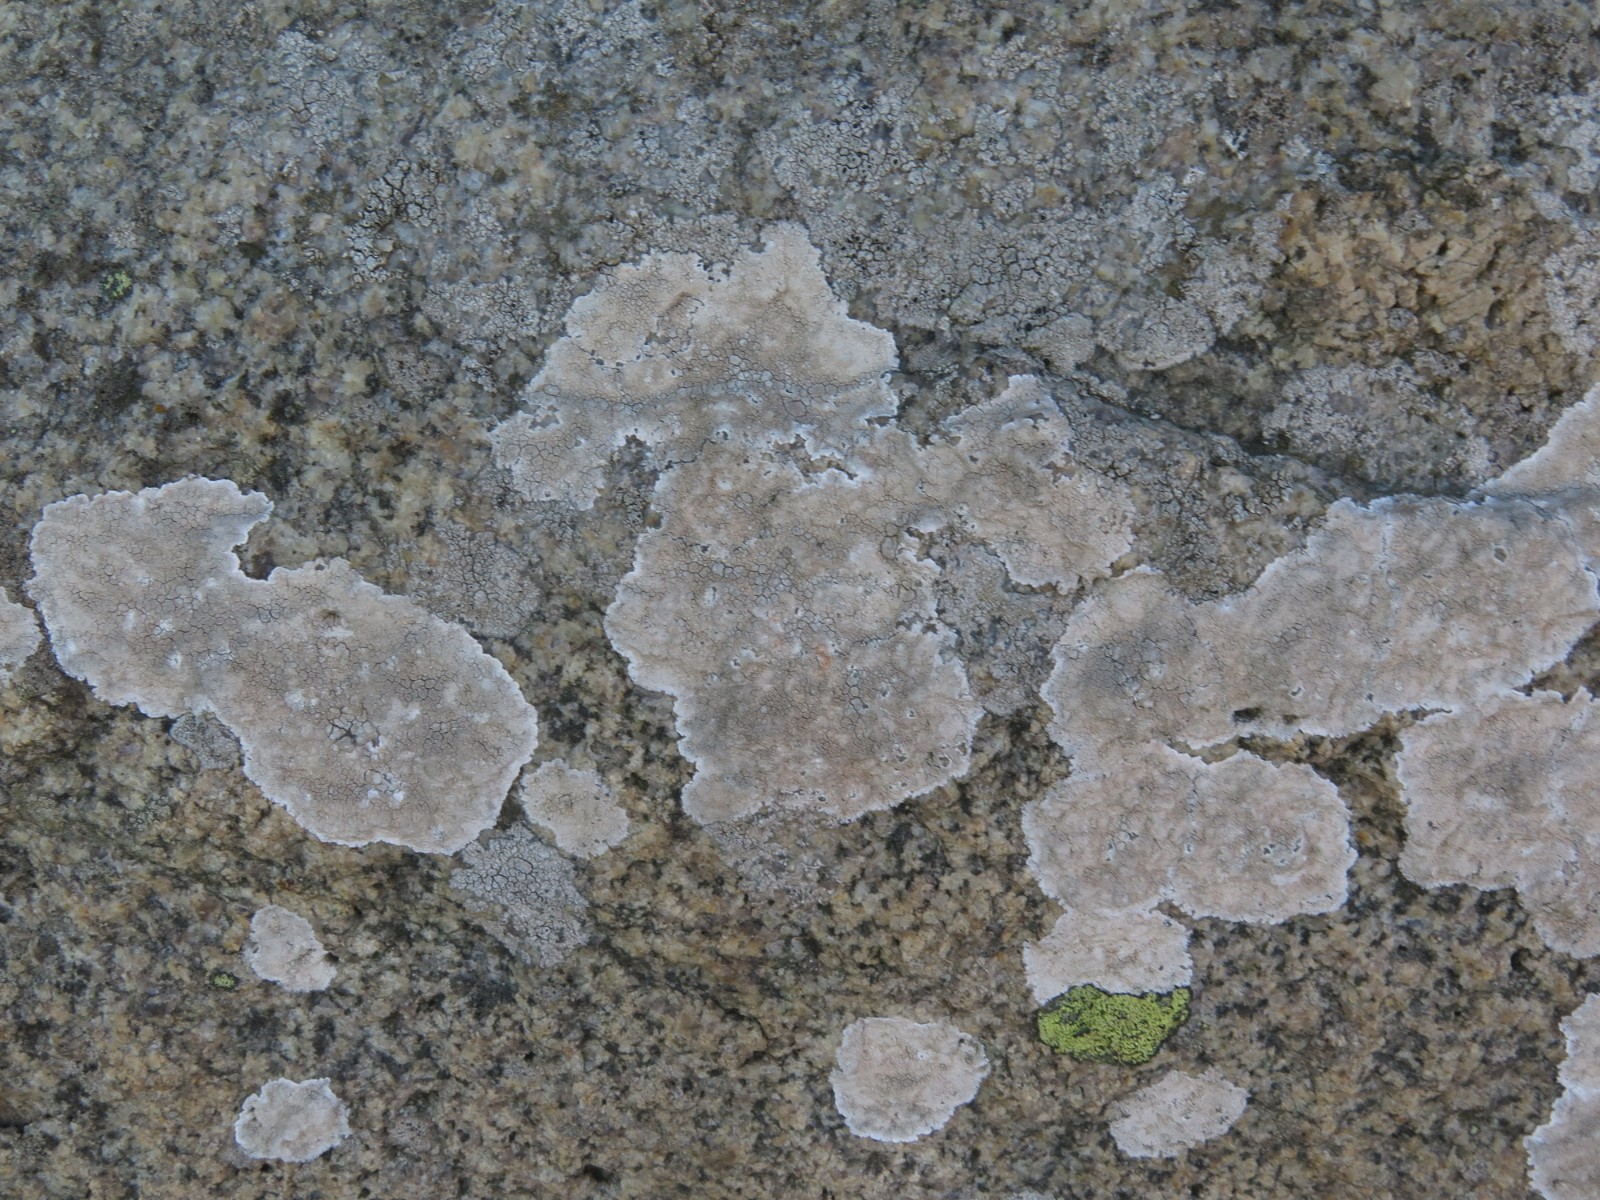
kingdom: Fungi
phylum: Ascomycota
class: Lecanoromycetes
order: Lecanorales
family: Lecanoraceae
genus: Glaucomaria
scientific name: Glaucomaria rupicola
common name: stengærde-kantskivelav
